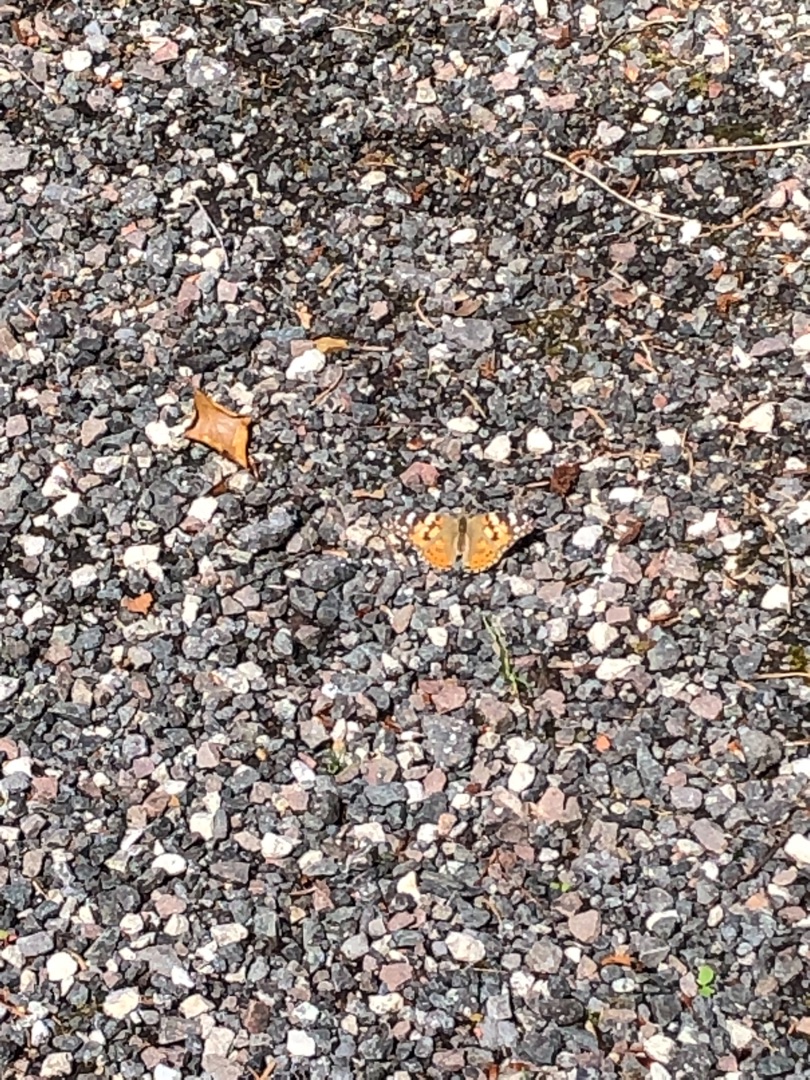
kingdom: Animalia
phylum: Arthropoda
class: Insecta
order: Lepidoptera
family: Nymphalidae
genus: Vanessa
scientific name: Vanessa cardui
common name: Tidselsommerfugl
